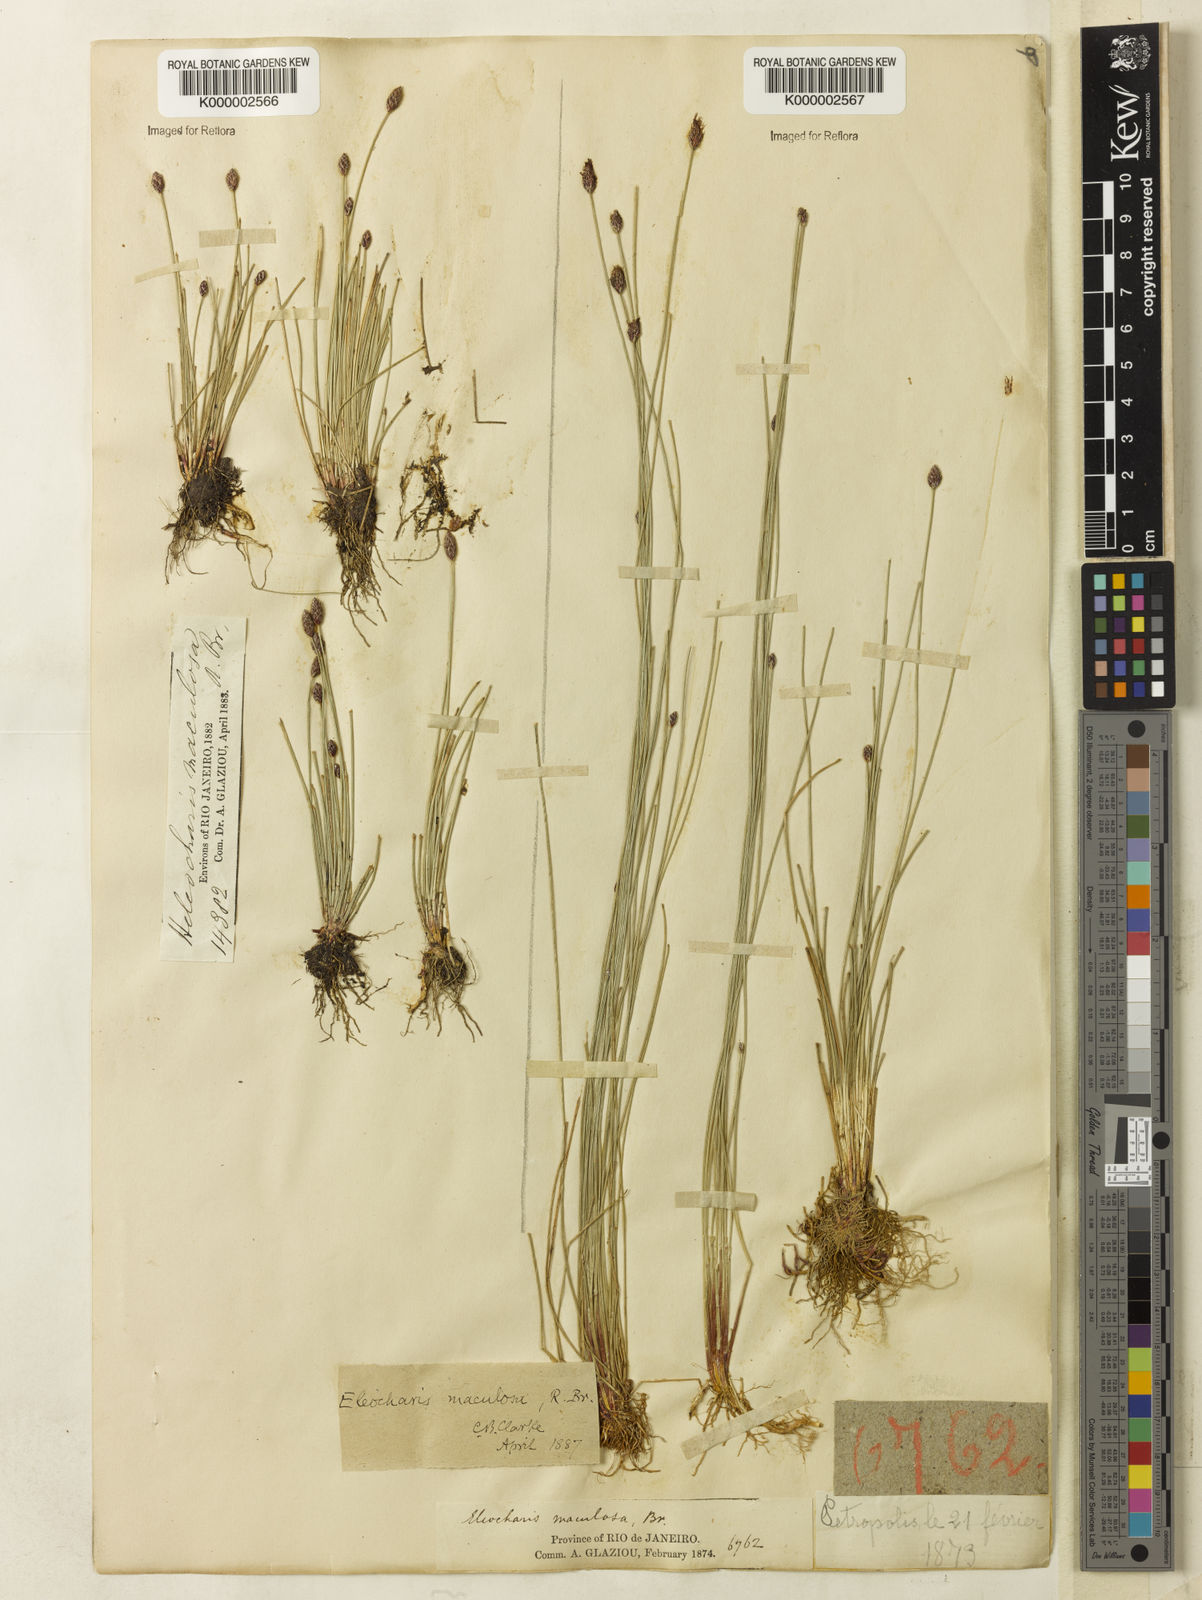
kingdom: Plantae
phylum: Tracheophyta
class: Liliopsida
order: Poales
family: Cyperaceae
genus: Eleocharis
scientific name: Eleocharis maculosa
